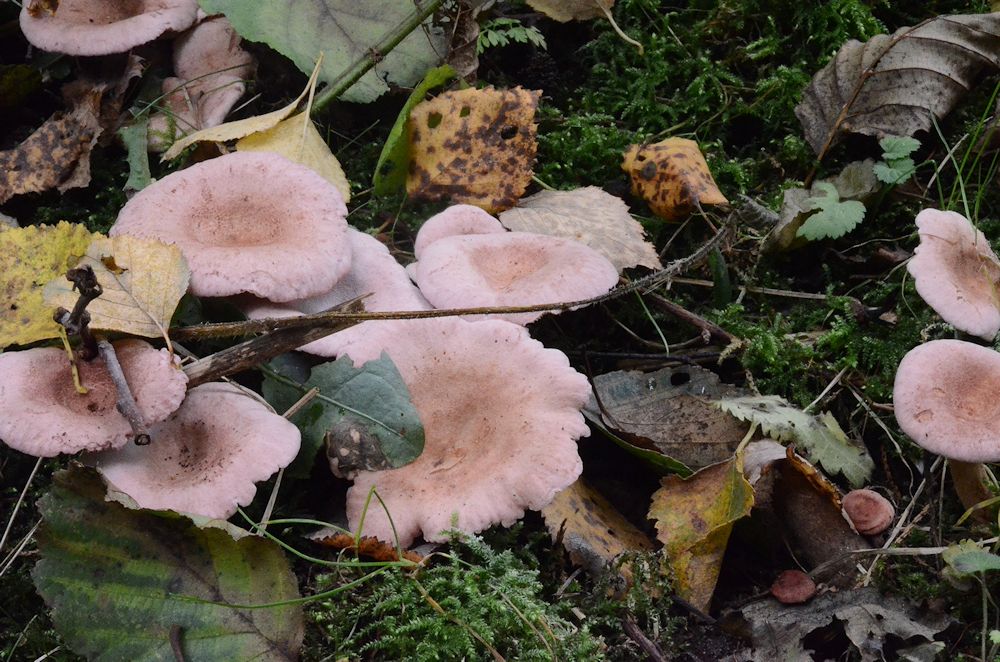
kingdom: Fungi
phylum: Basidiomycota
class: Agaricomycetes
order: Russulales
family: Russulaceae
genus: Lactarius
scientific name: Lactarius lilacinus
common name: lilla mælkehat
